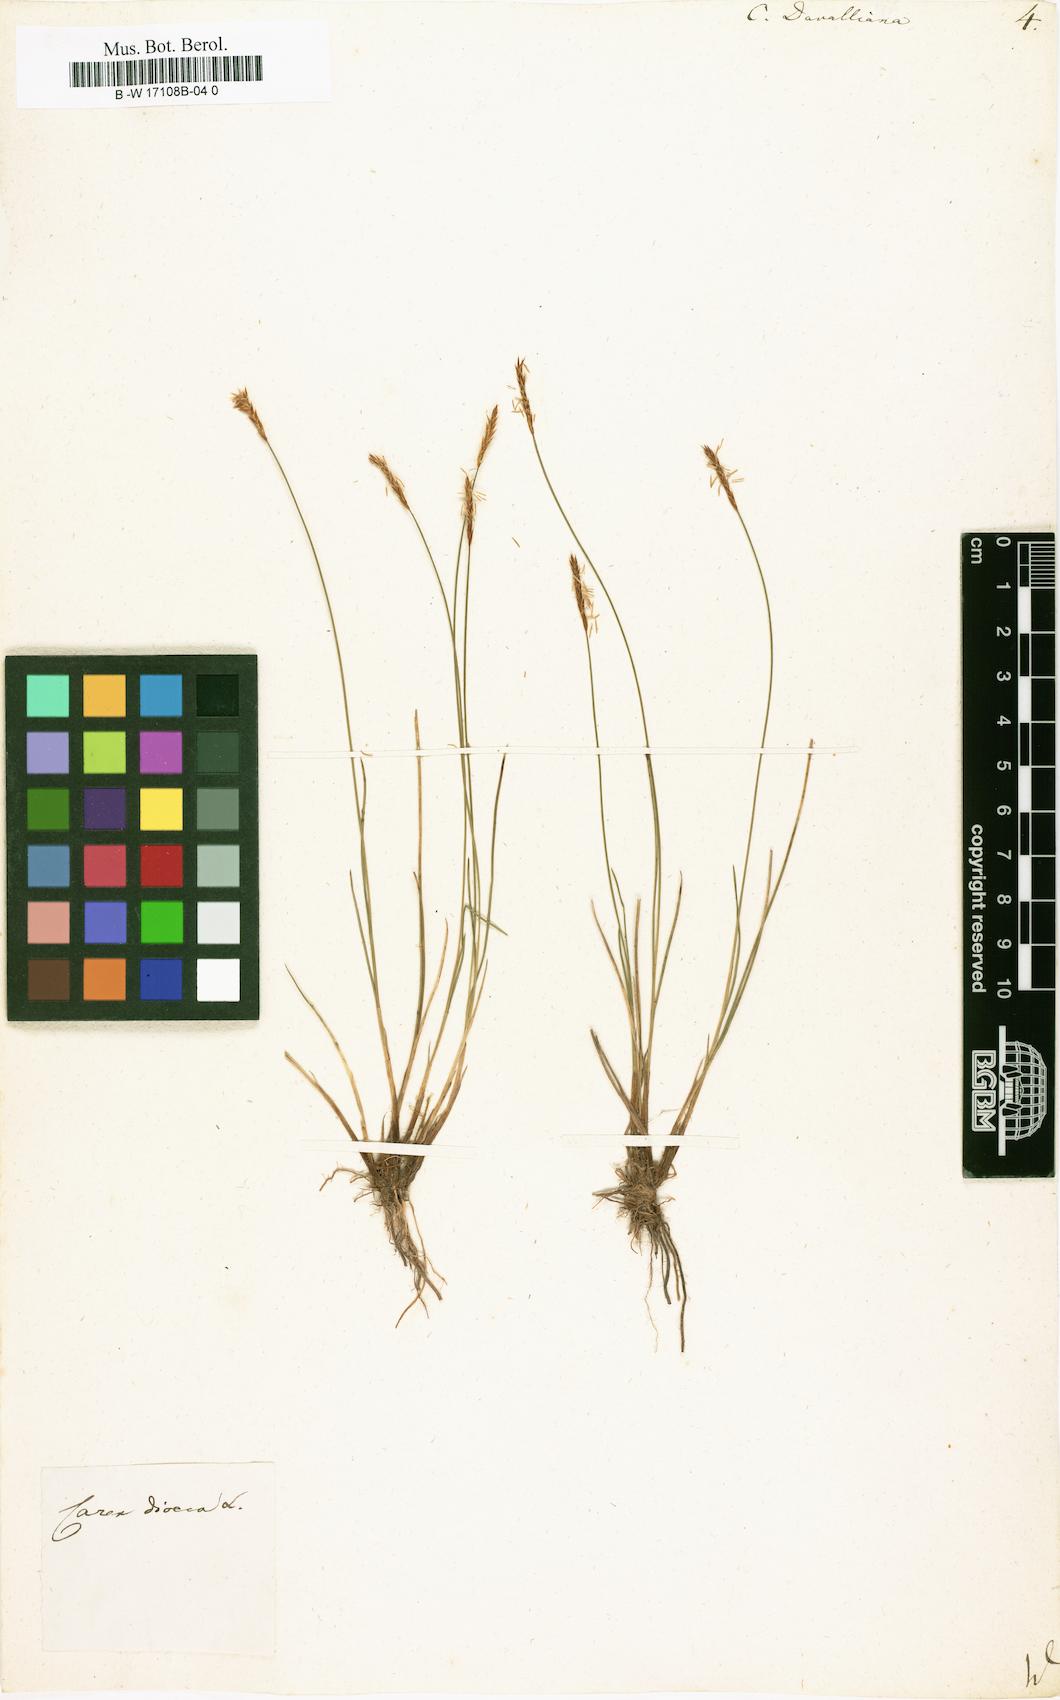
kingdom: Plantae
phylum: Tracheophyta
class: Liliopsida
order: Poales
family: Cyperaceae
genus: Carex
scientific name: Carex davalliana
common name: Davall's sedge
